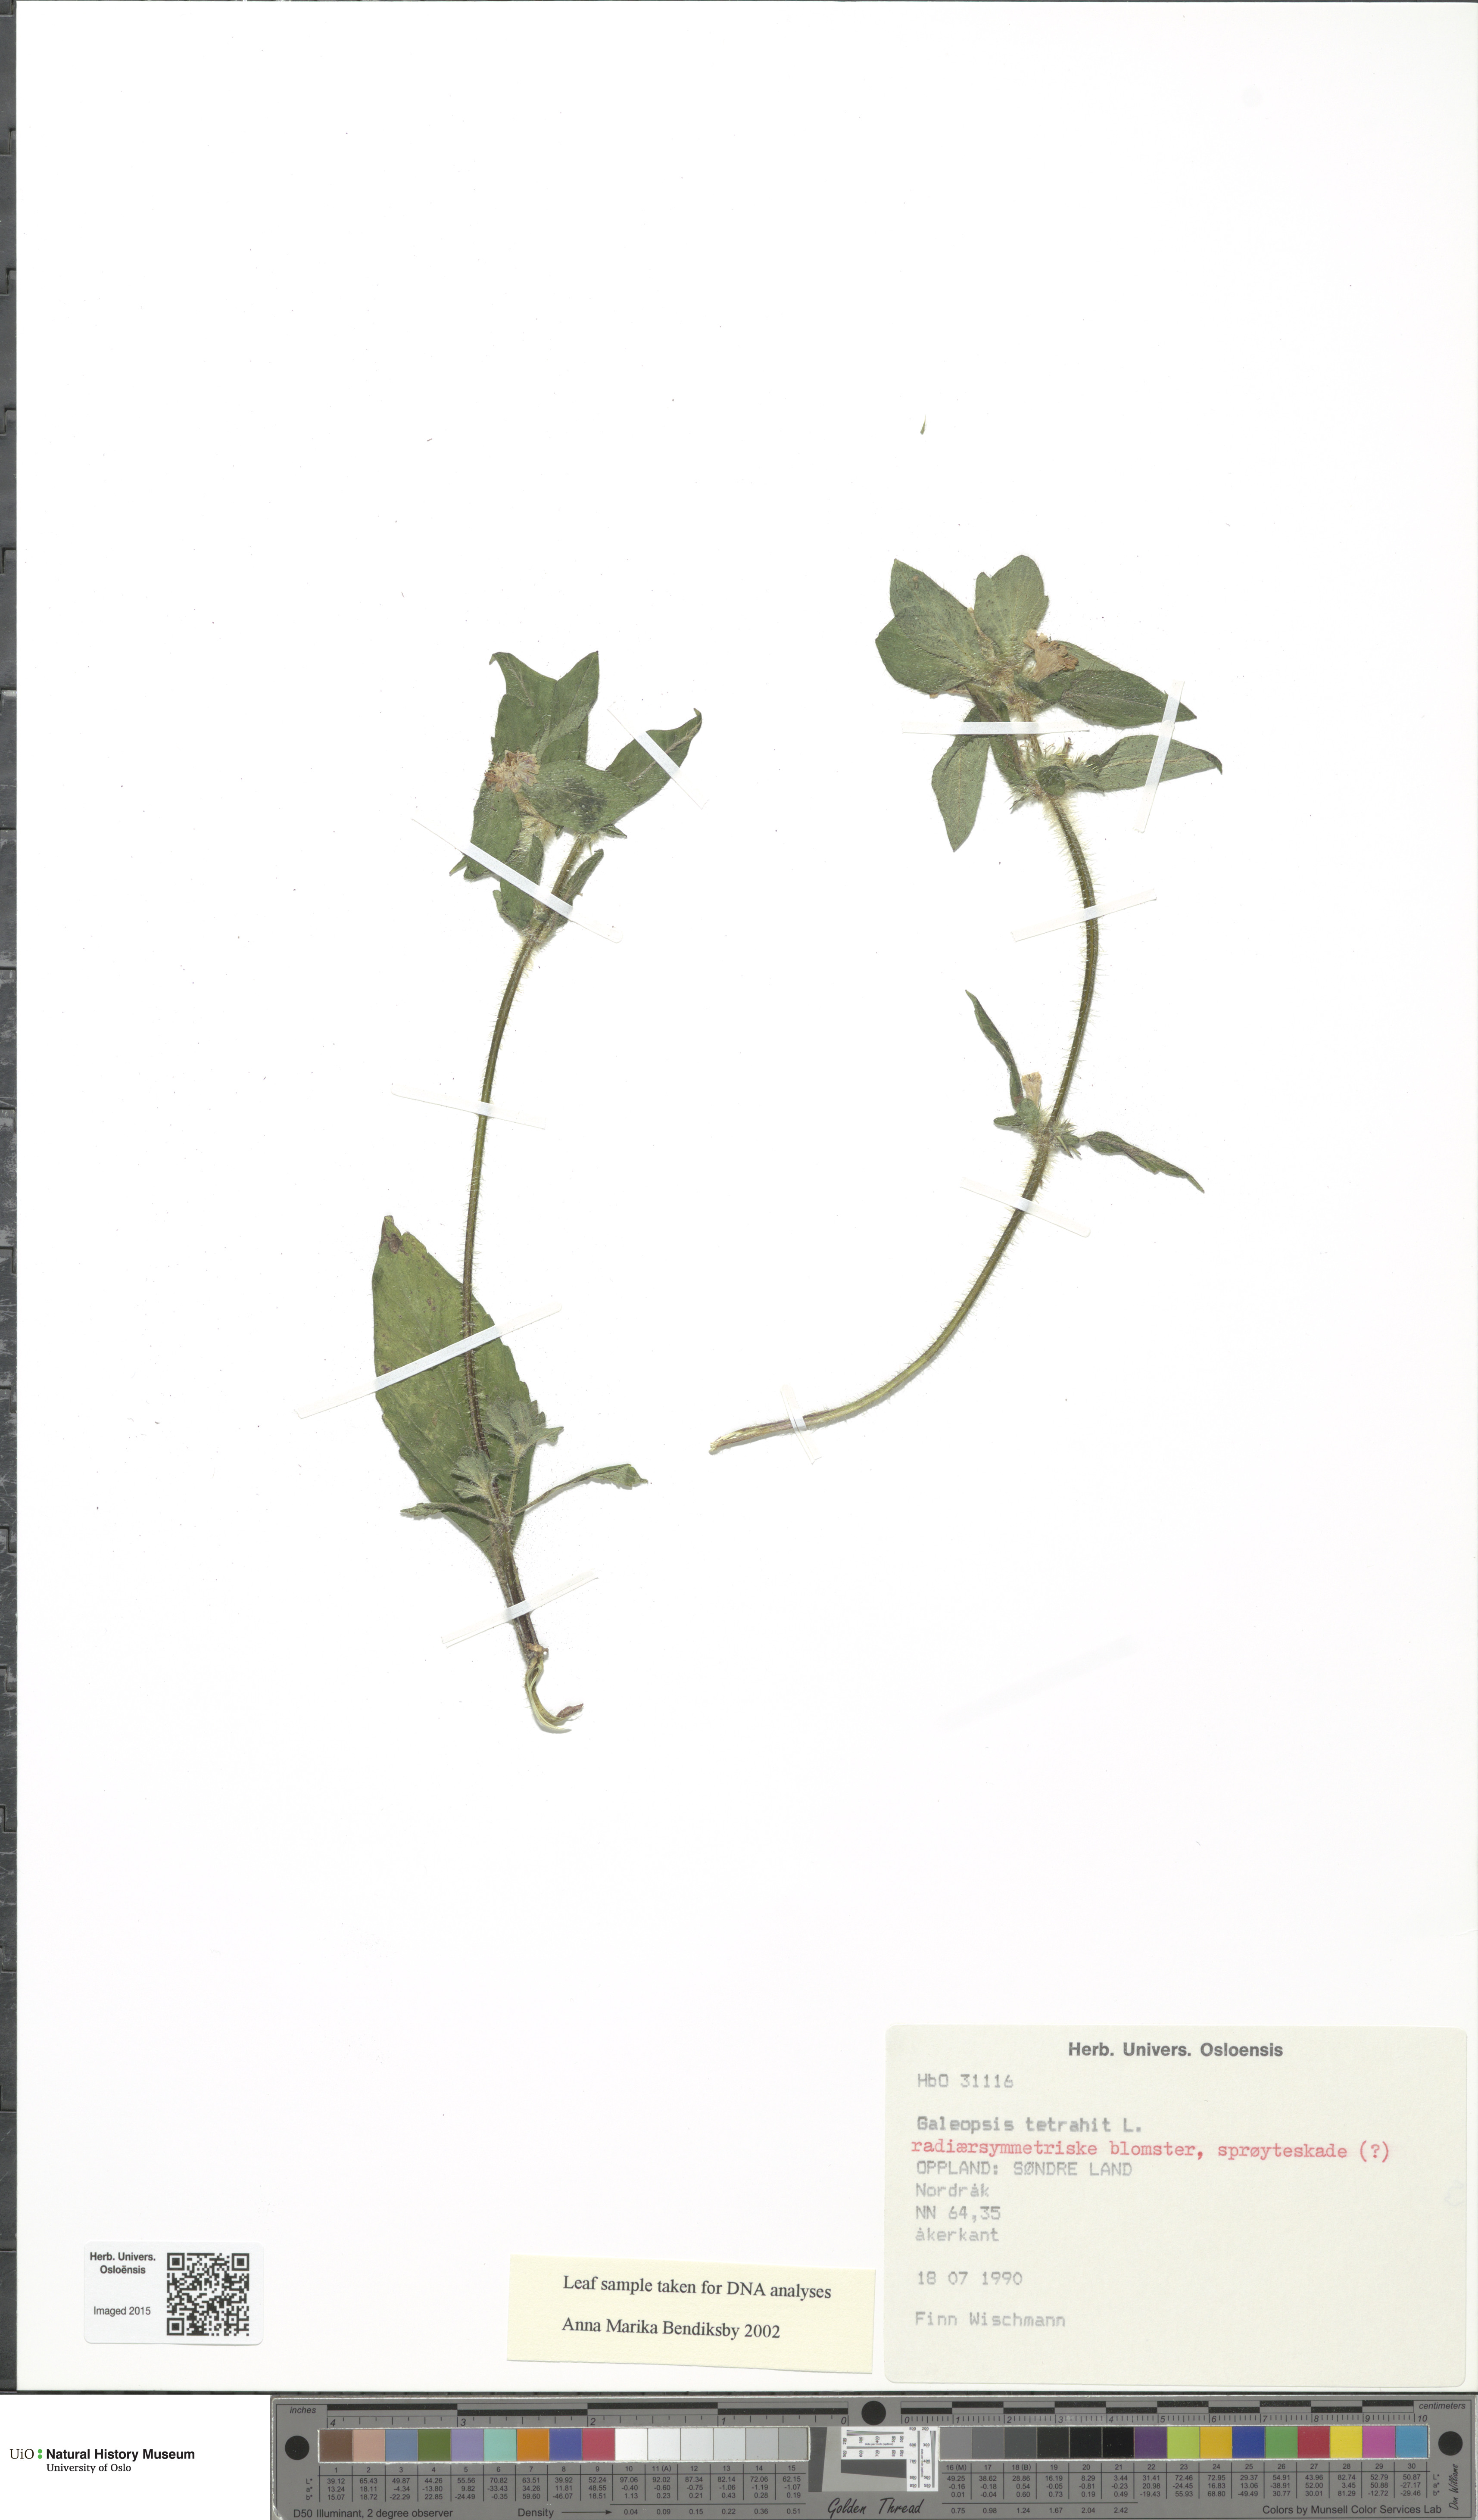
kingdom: Plantae
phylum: Tracheophyta
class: Magnoliopsida
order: Lamiales
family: Lamiaceae
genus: Galeopsis
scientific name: Galeopsis tetrahit
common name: Common hemp-nettle
